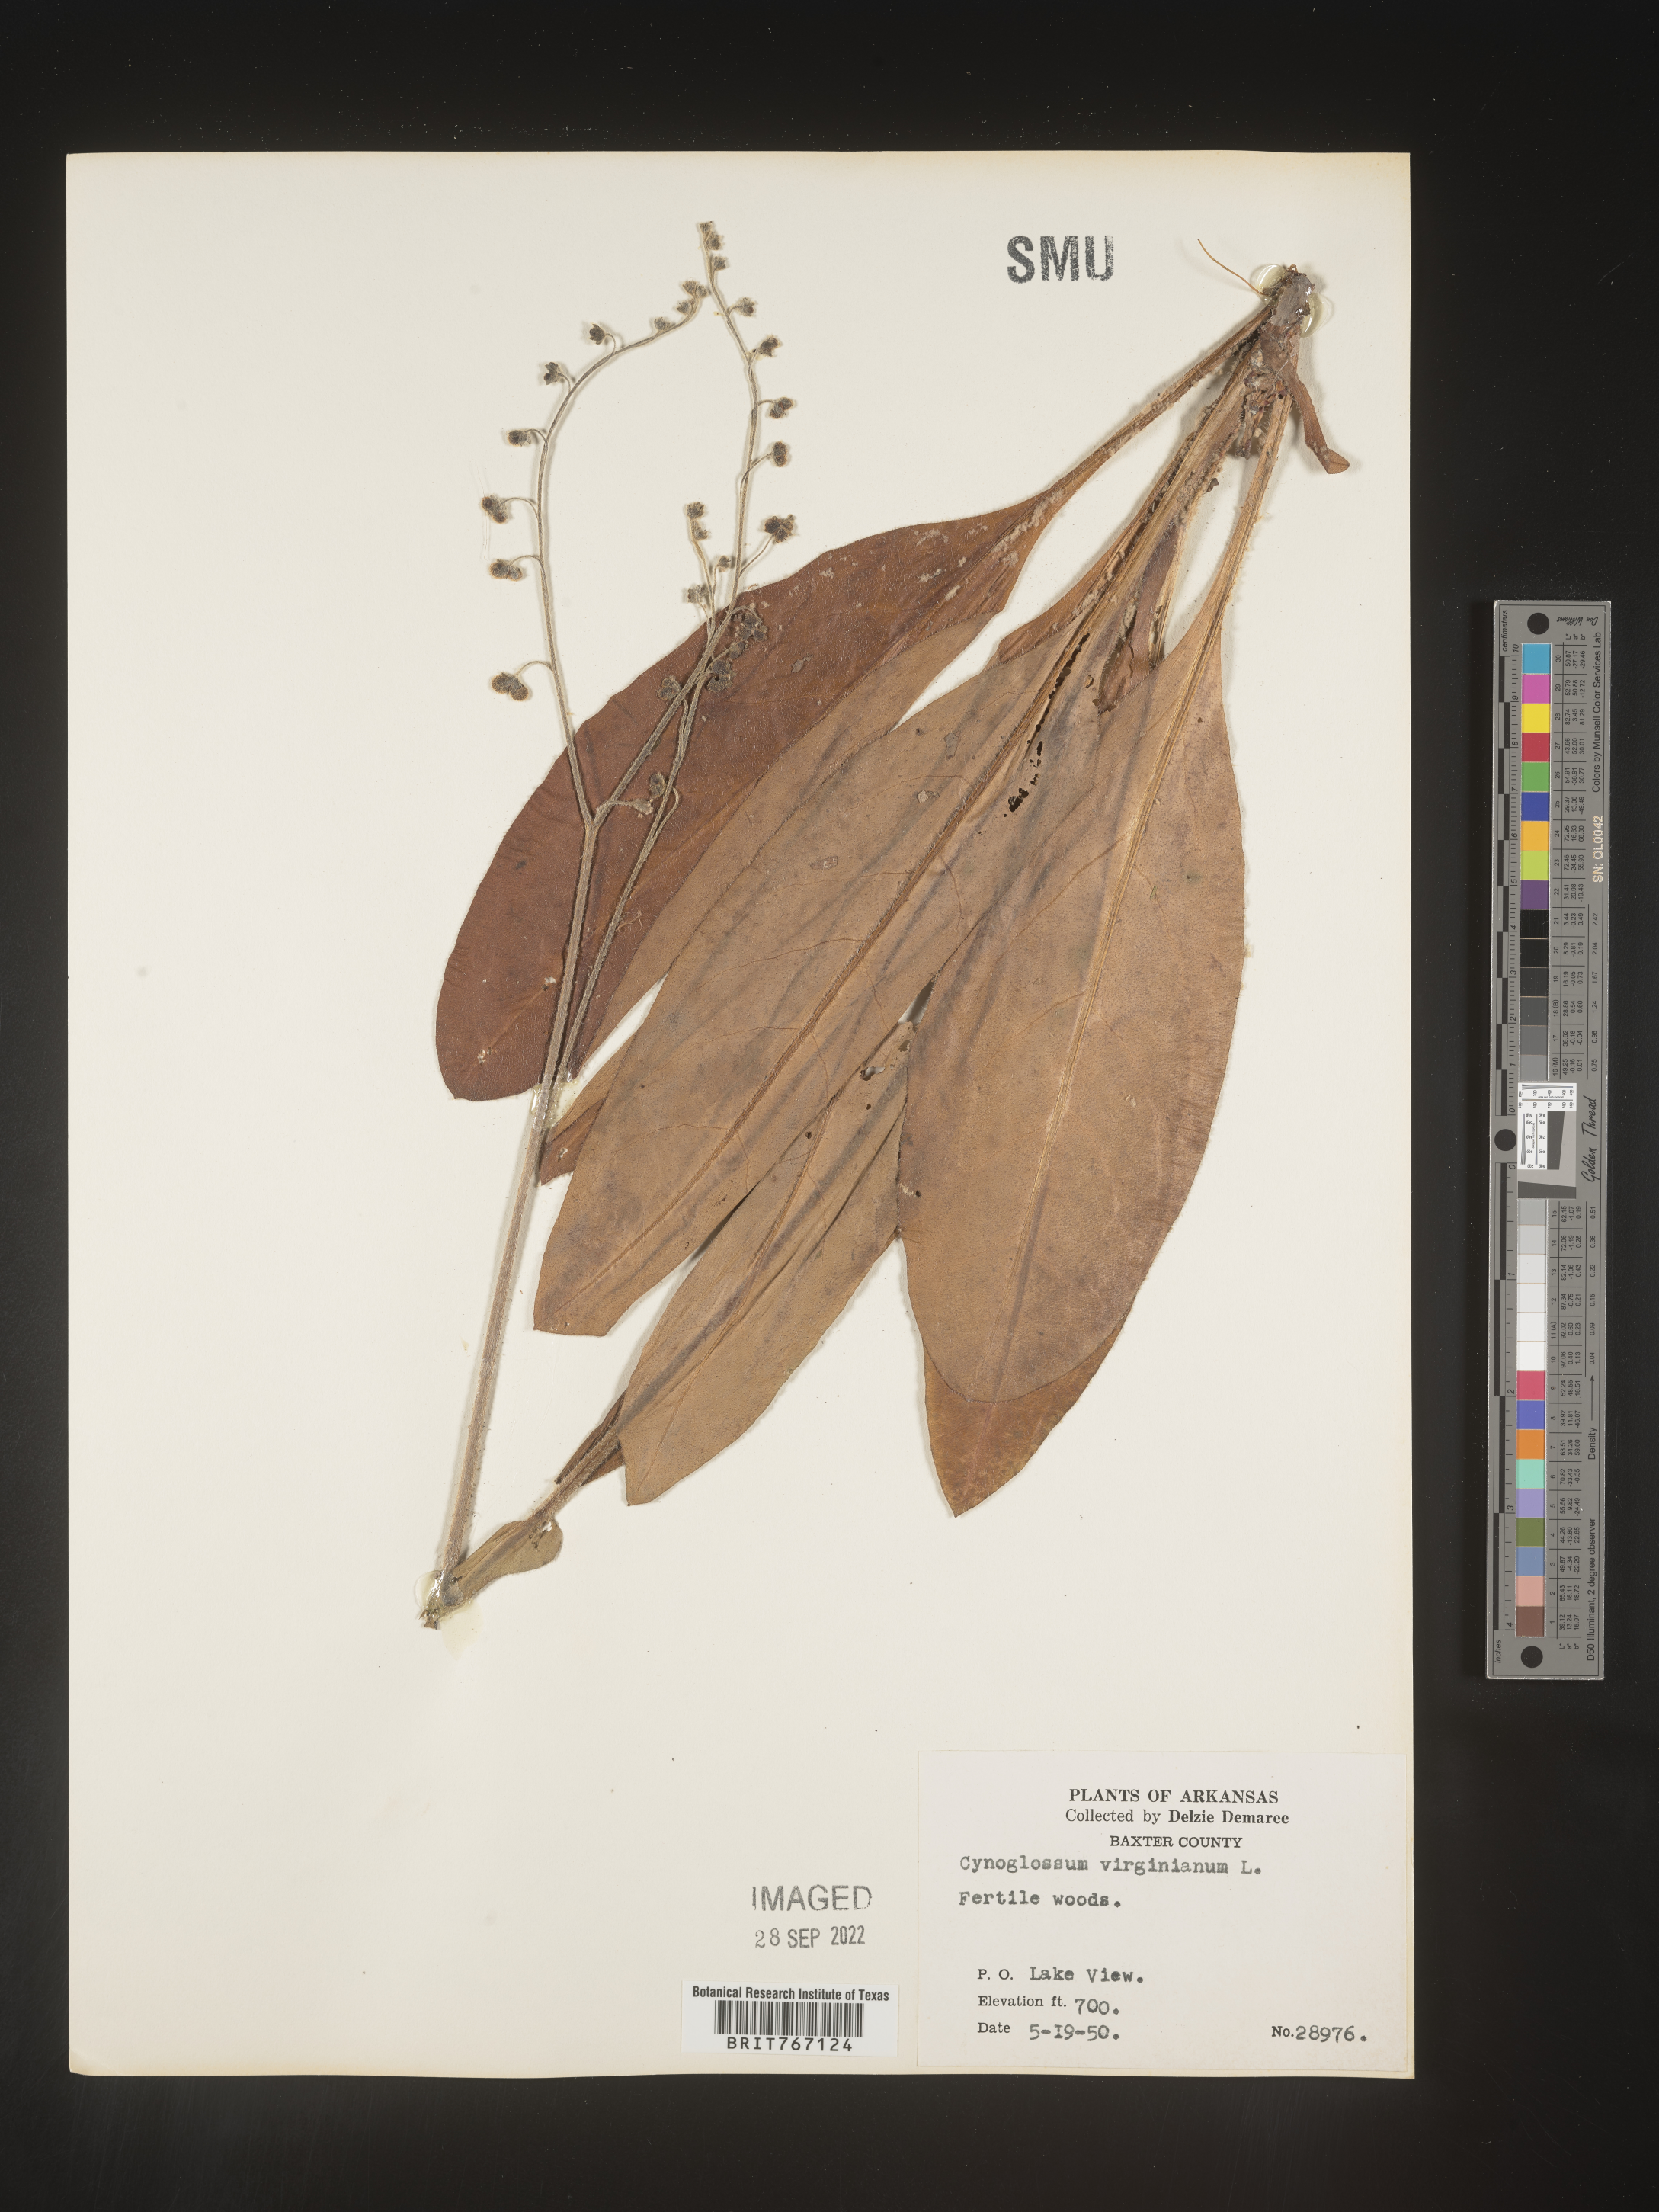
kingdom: Plantae
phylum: Tracheophyta
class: Magnoliopsida
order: Boraginales
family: Boraginaceae
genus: Andersonglossum
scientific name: Andersonglossum virginianum
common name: Wild comfrey
